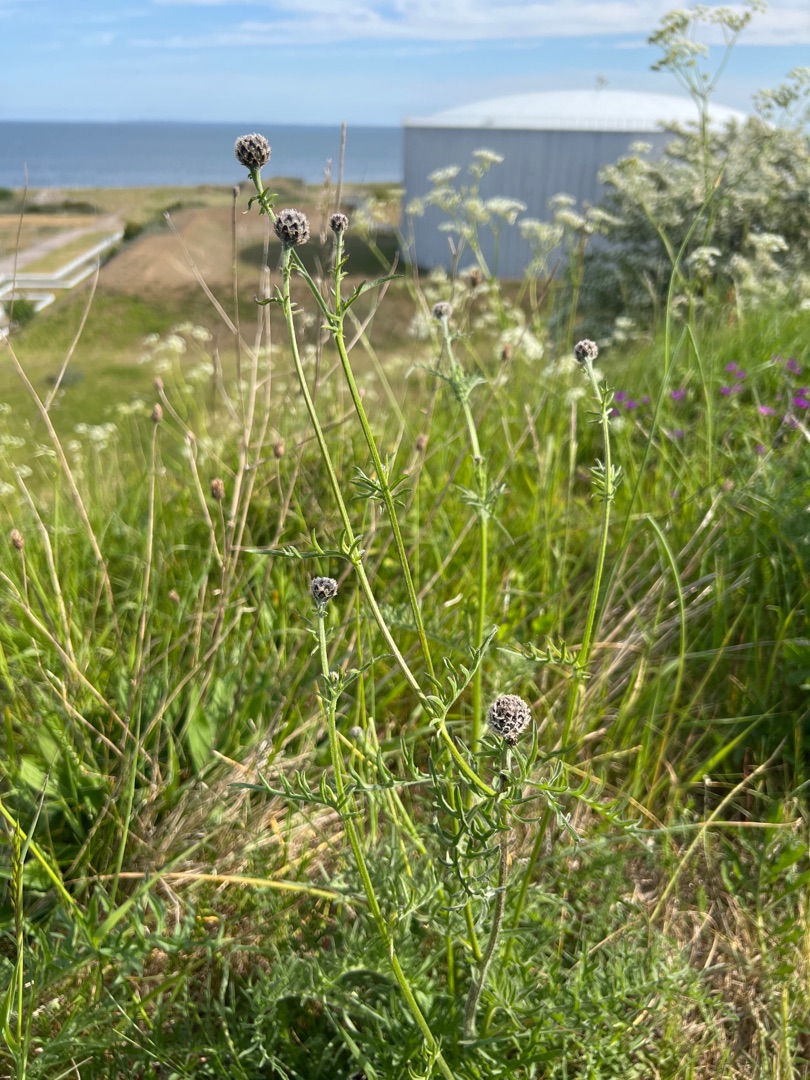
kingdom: Plantae
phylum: Tracheophyta
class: Magnoliopsida
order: Asterales
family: Asteraceae
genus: Centaurea
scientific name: Centaurea scabiosa
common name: Stor knopurt
